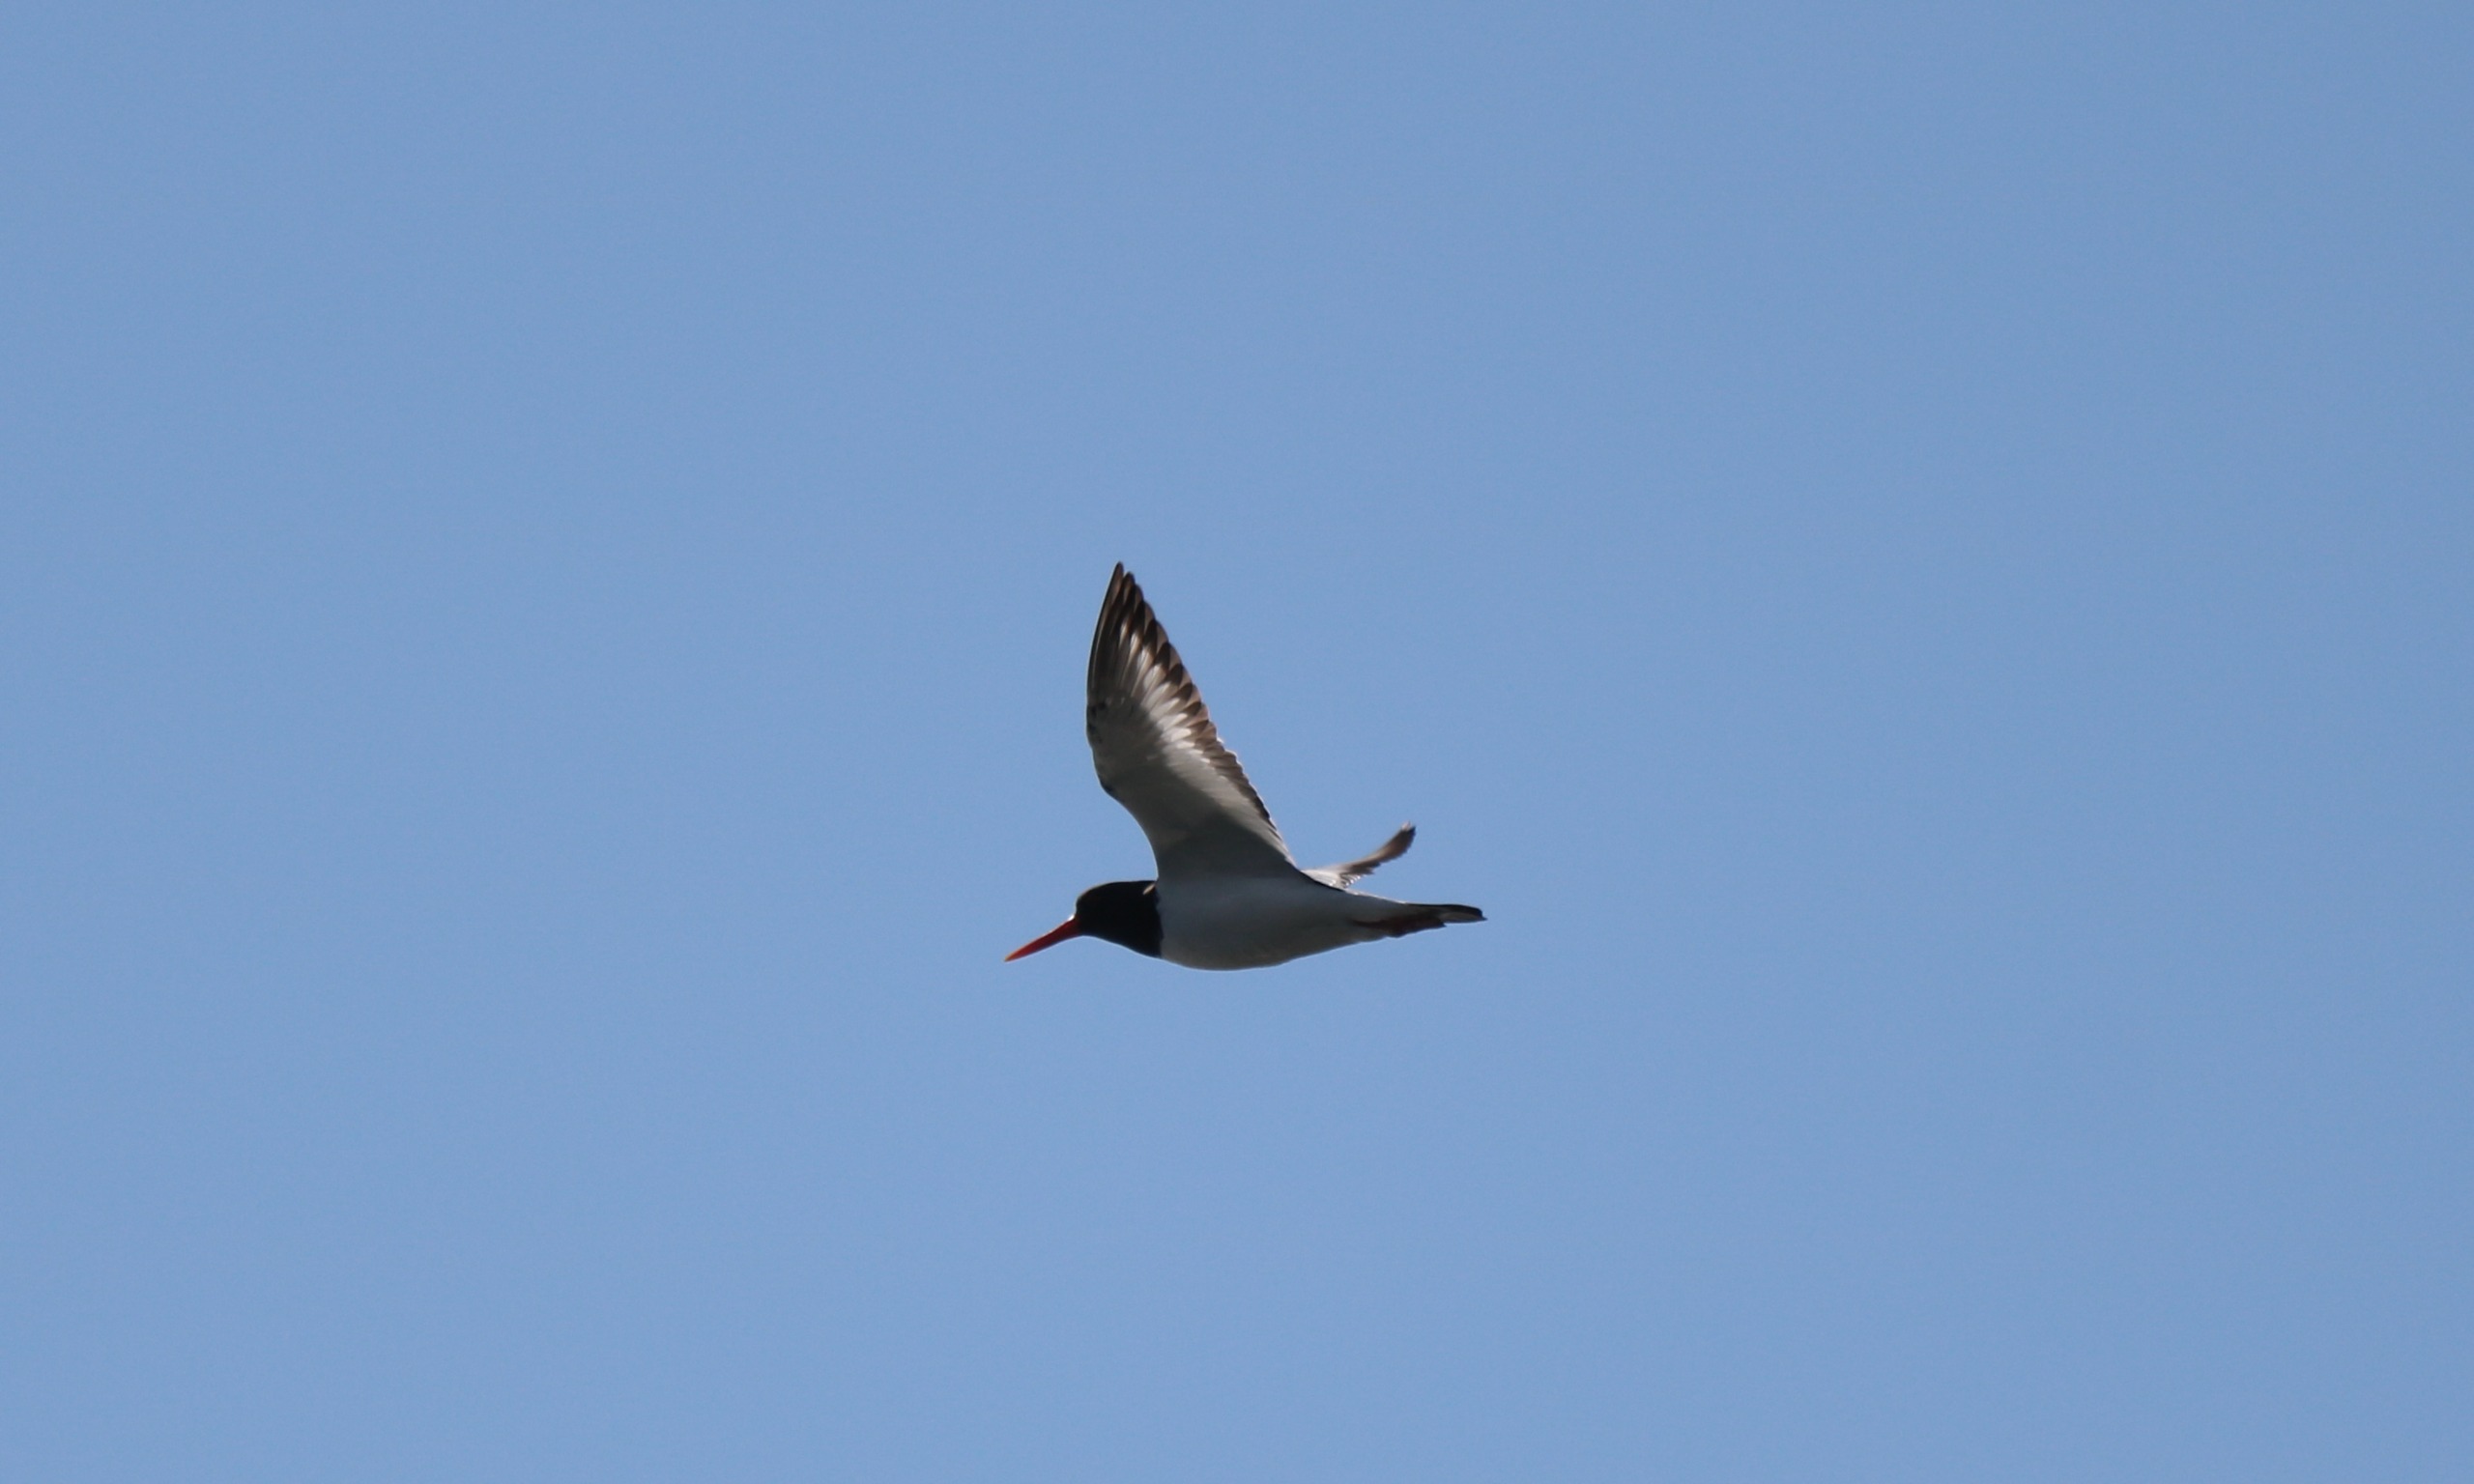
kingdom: Animalia
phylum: Chordata
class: Aves
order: Charadriiformes
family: Haematopodidae
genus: Haematopus
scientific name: Haematopus ostralegus
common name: Strandskade
